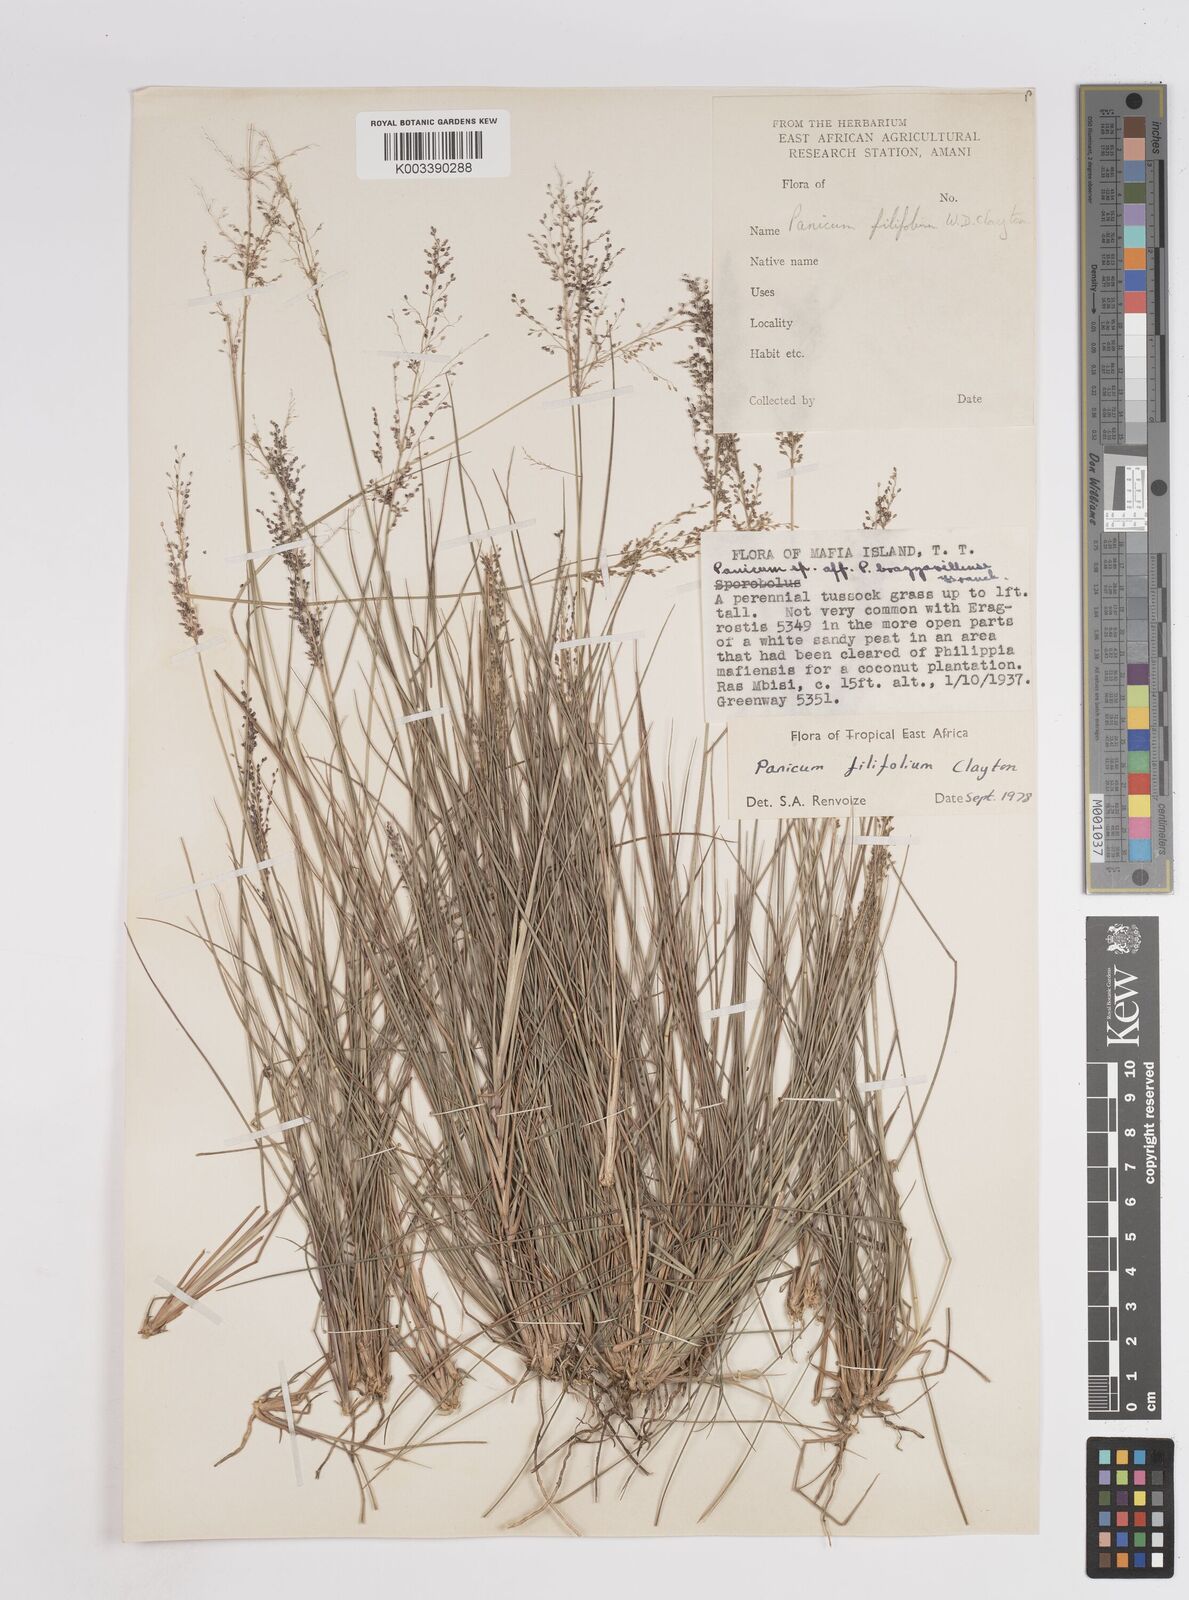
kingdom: Plantae
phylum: Tracheophyta
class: Liliopsida
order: Poales
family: Poaceae
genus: Trichanthecium
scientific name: Trichanthecium filifolium
